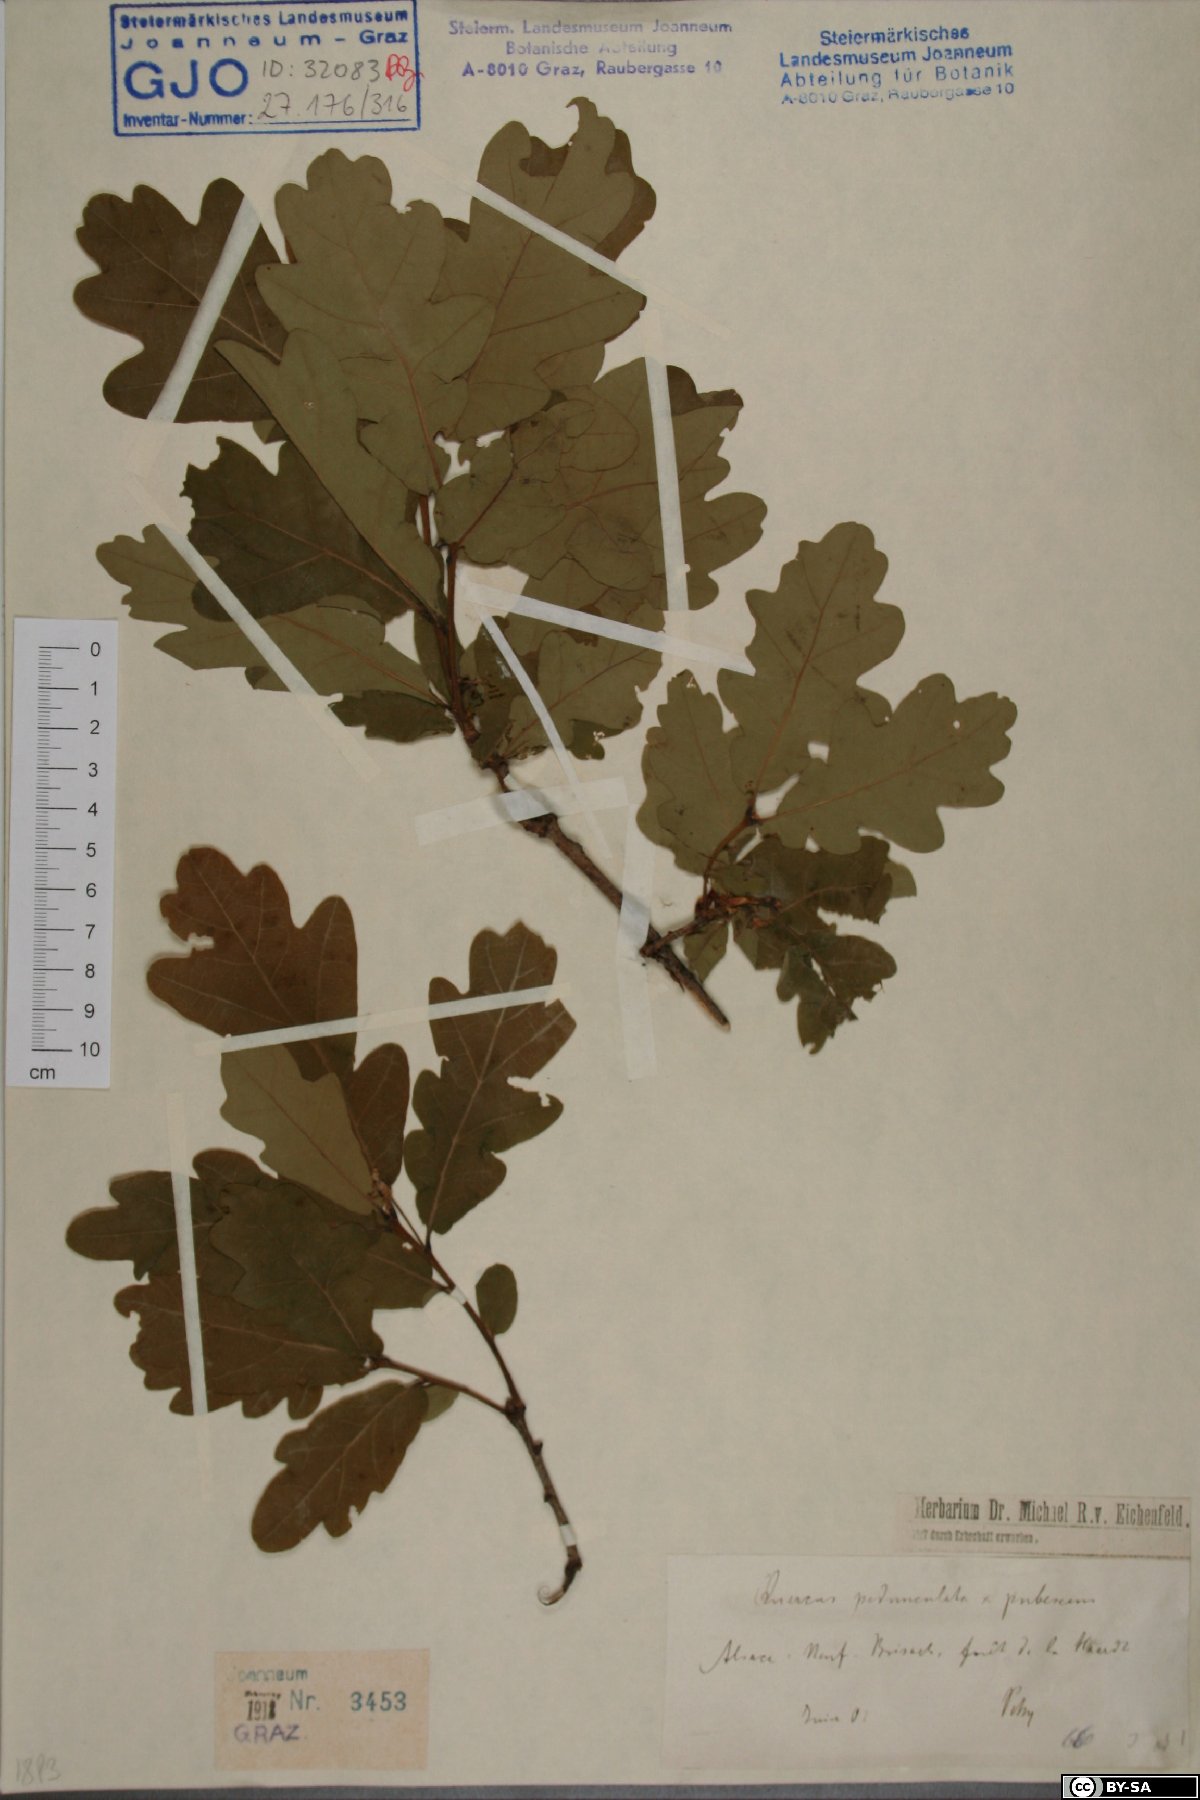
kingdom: Plantae
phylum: Tracheophyta
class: Magnoliopsida
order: Fagales
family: Fagaceae
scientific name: Fagaceae
